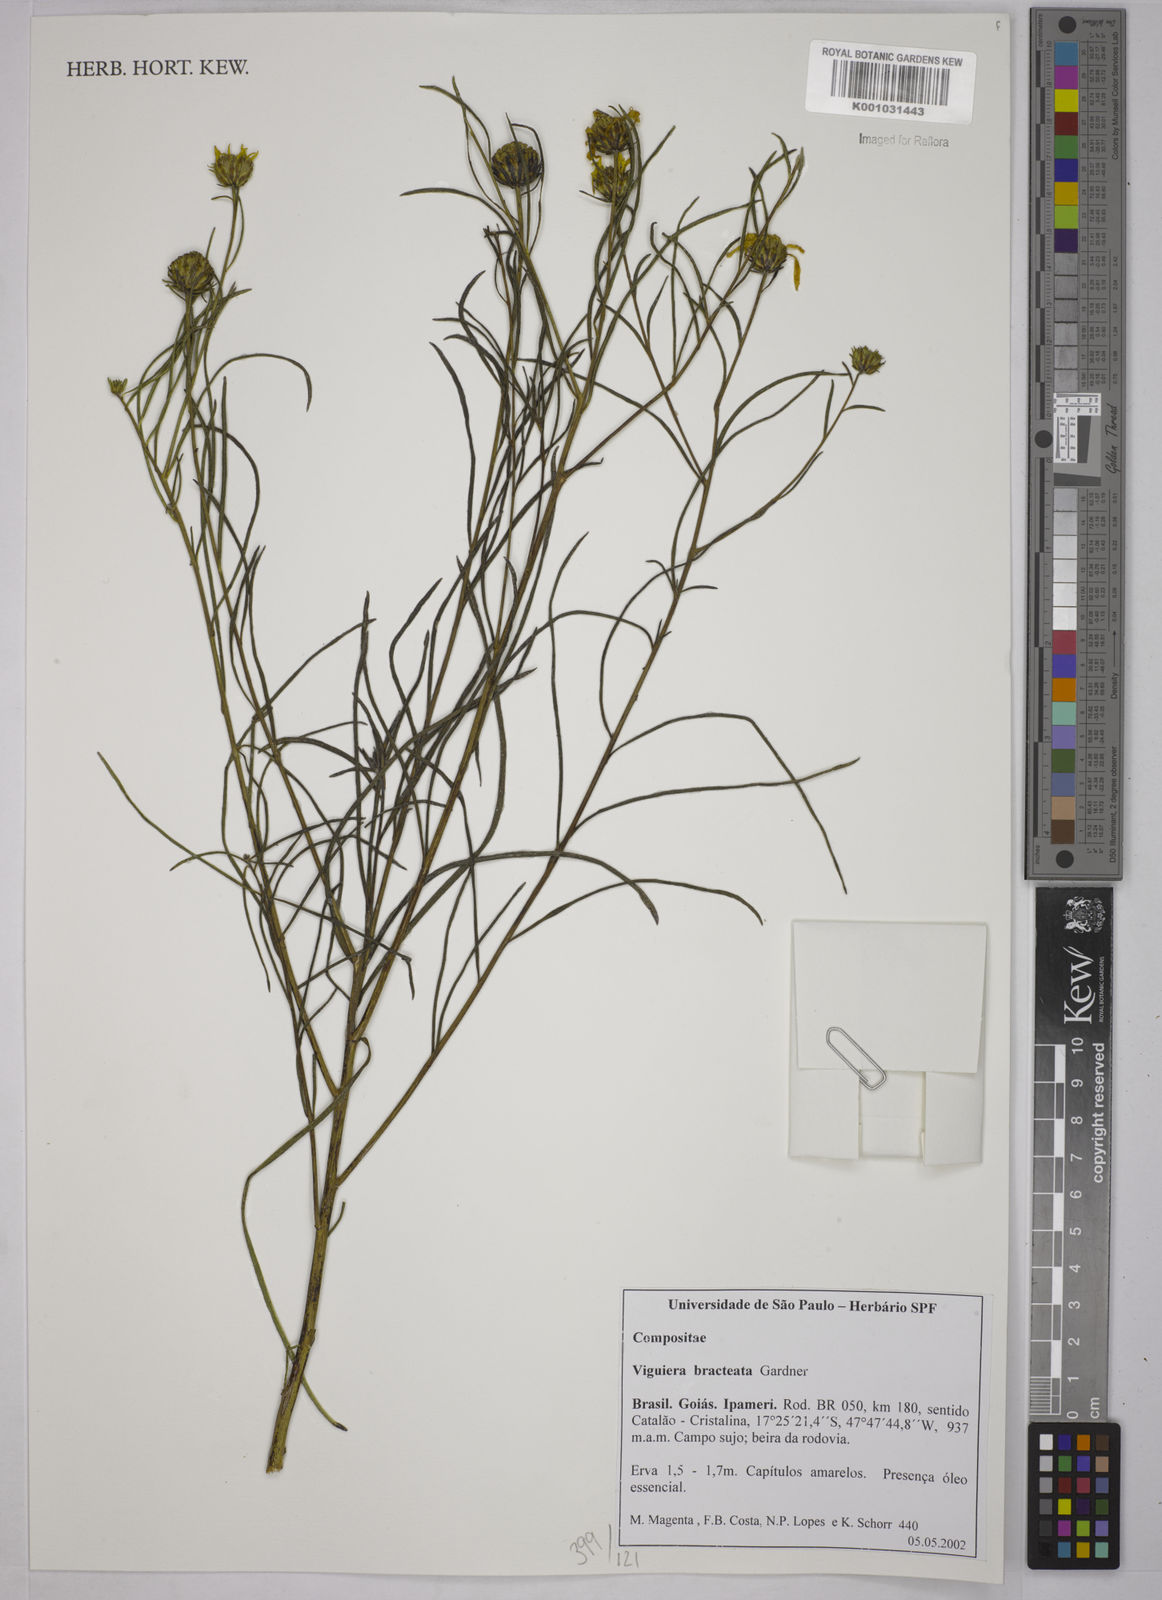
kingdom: Plantae
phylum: Tracheophyta
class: Magnoliopsida
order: Asterales
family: Asteraceae
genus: Aldama
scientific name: Aldama bracteata
